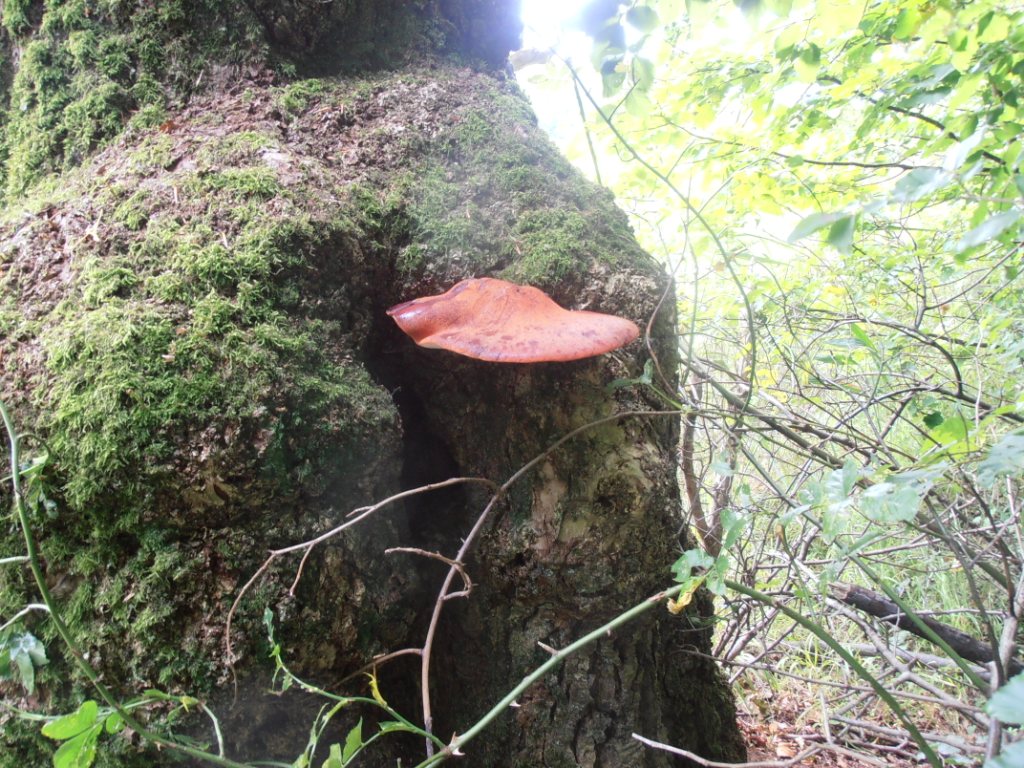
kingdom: Fungi
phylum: Basidiomycota
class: Agaricomycetes
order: Agaricales
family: Fistulinaceae
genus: Fistulina
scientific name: Fistulina hepatica
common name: oksetunge
